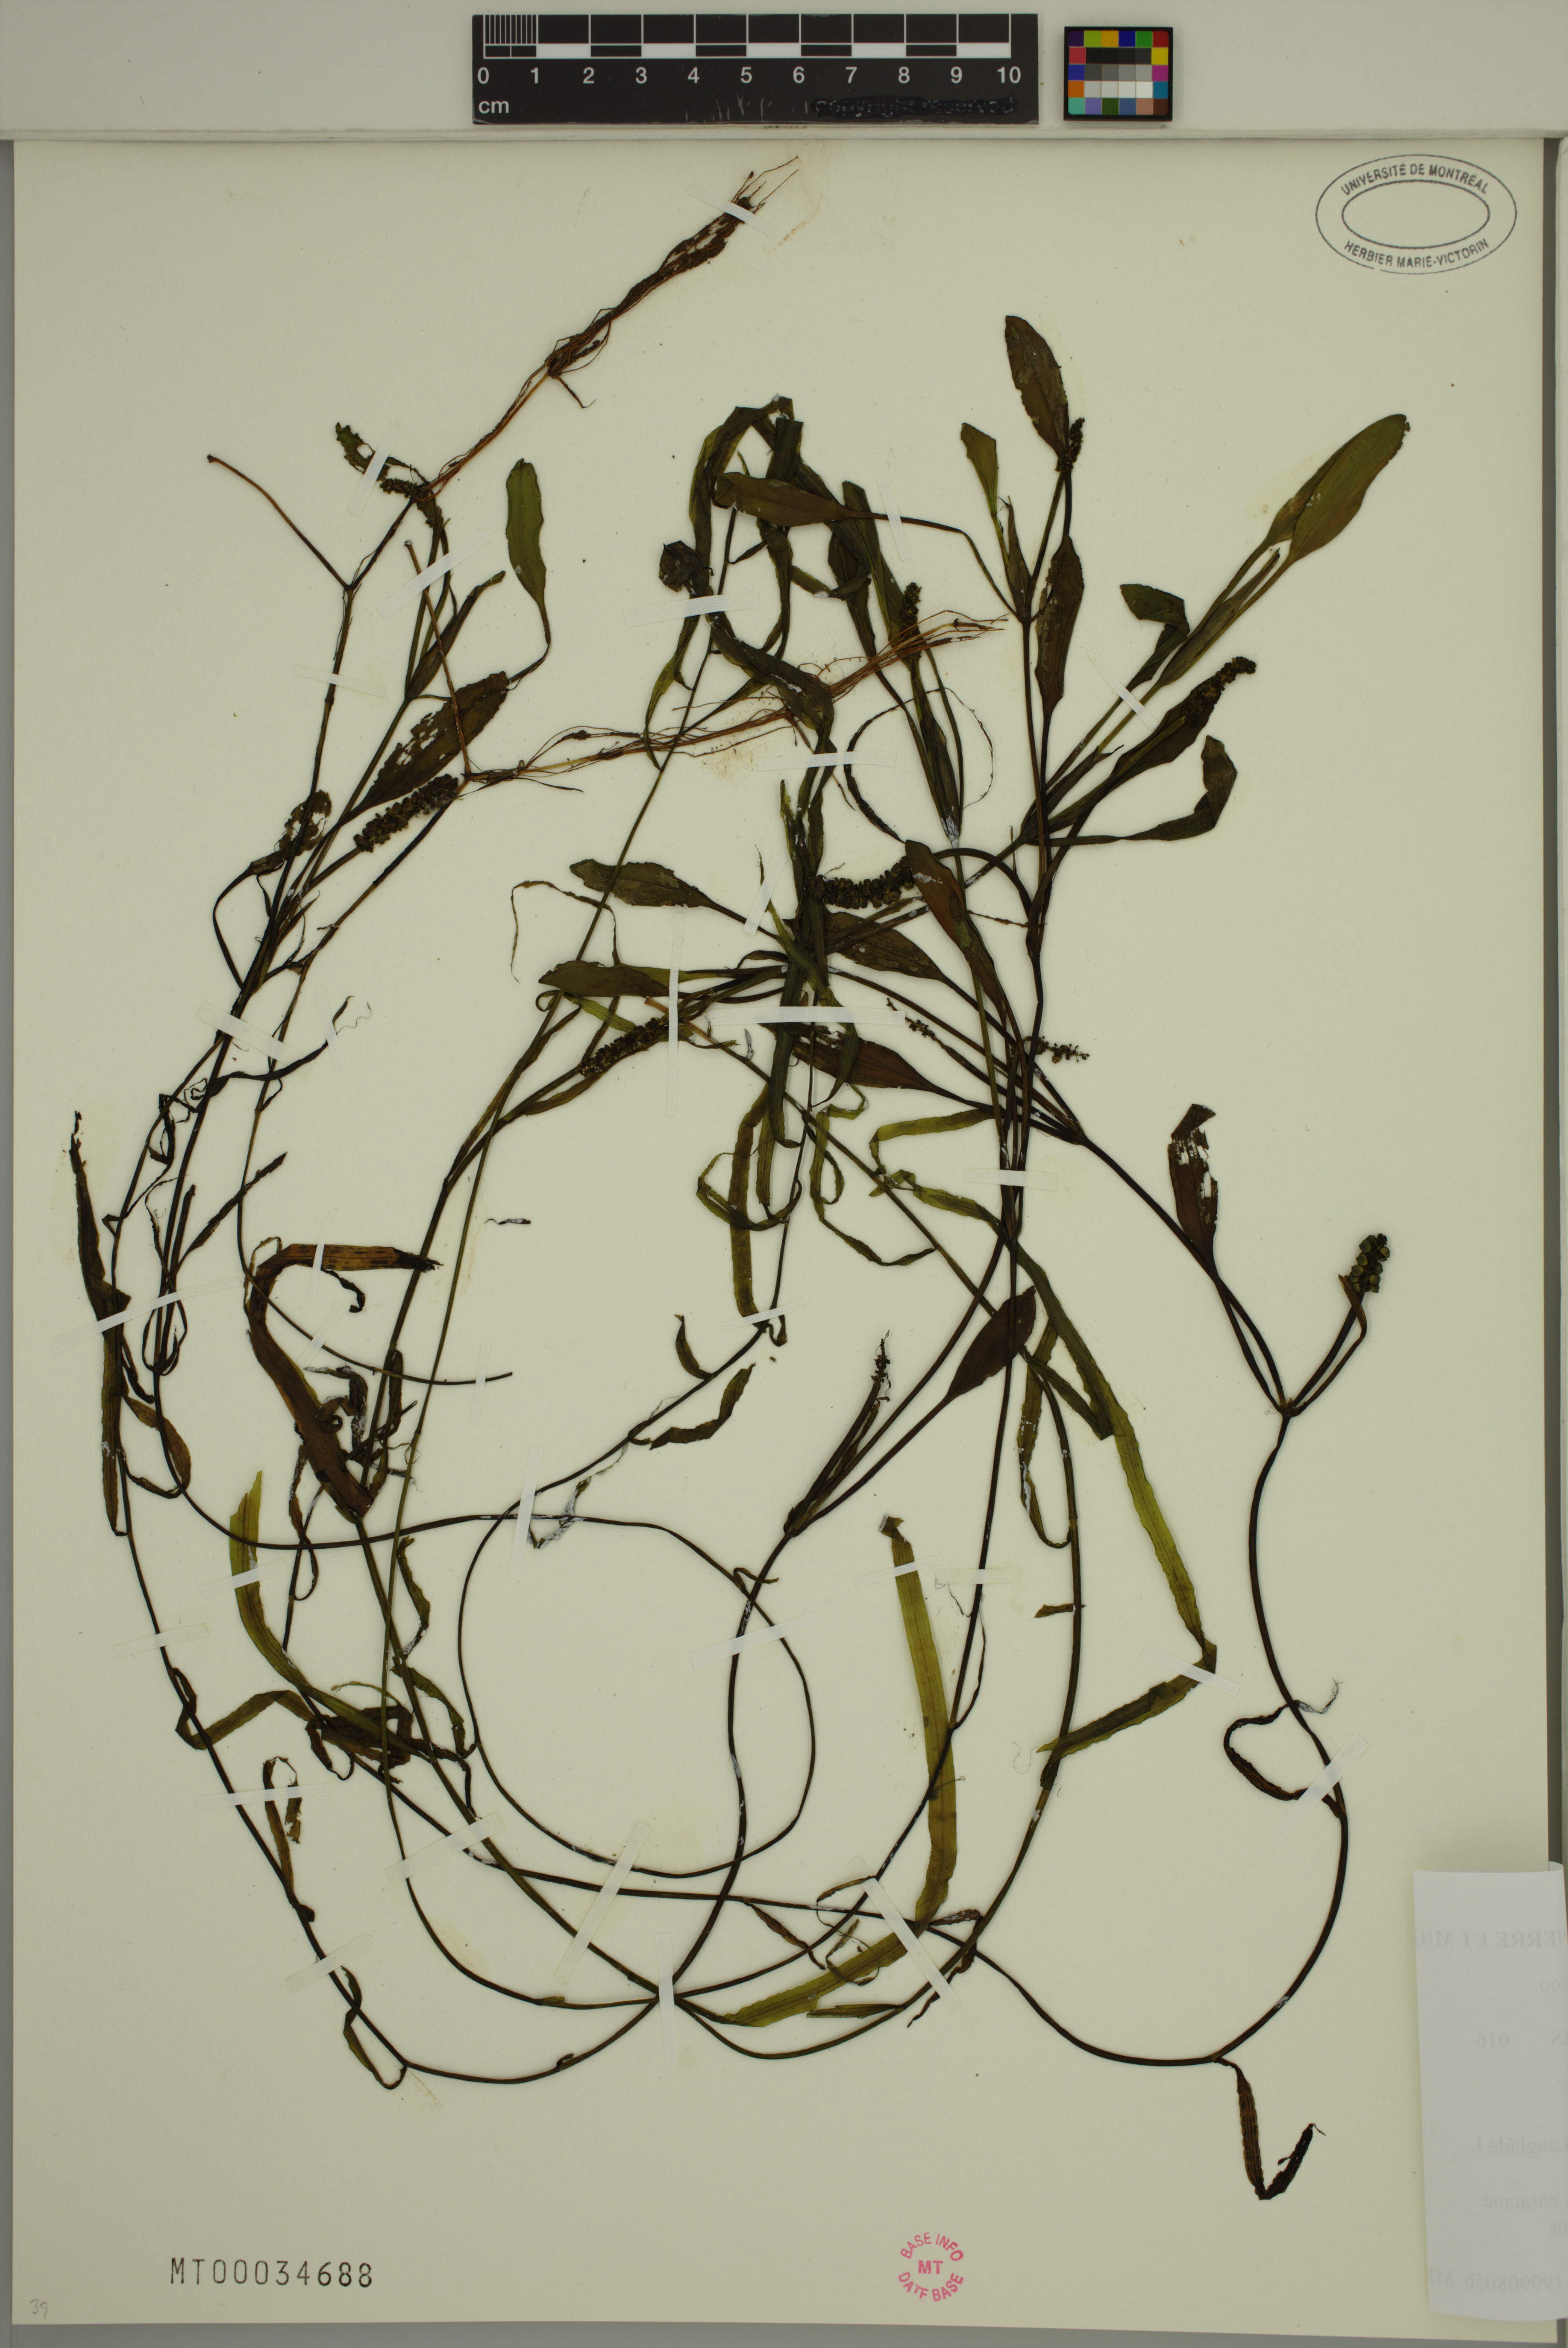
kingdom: Plantae
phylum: Tracheophyta
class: Liliopsida
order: Alismatales
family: Potamogetonaceae
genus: Potamogeton
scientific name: Potamogeton epihydrus
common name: American pondweed
